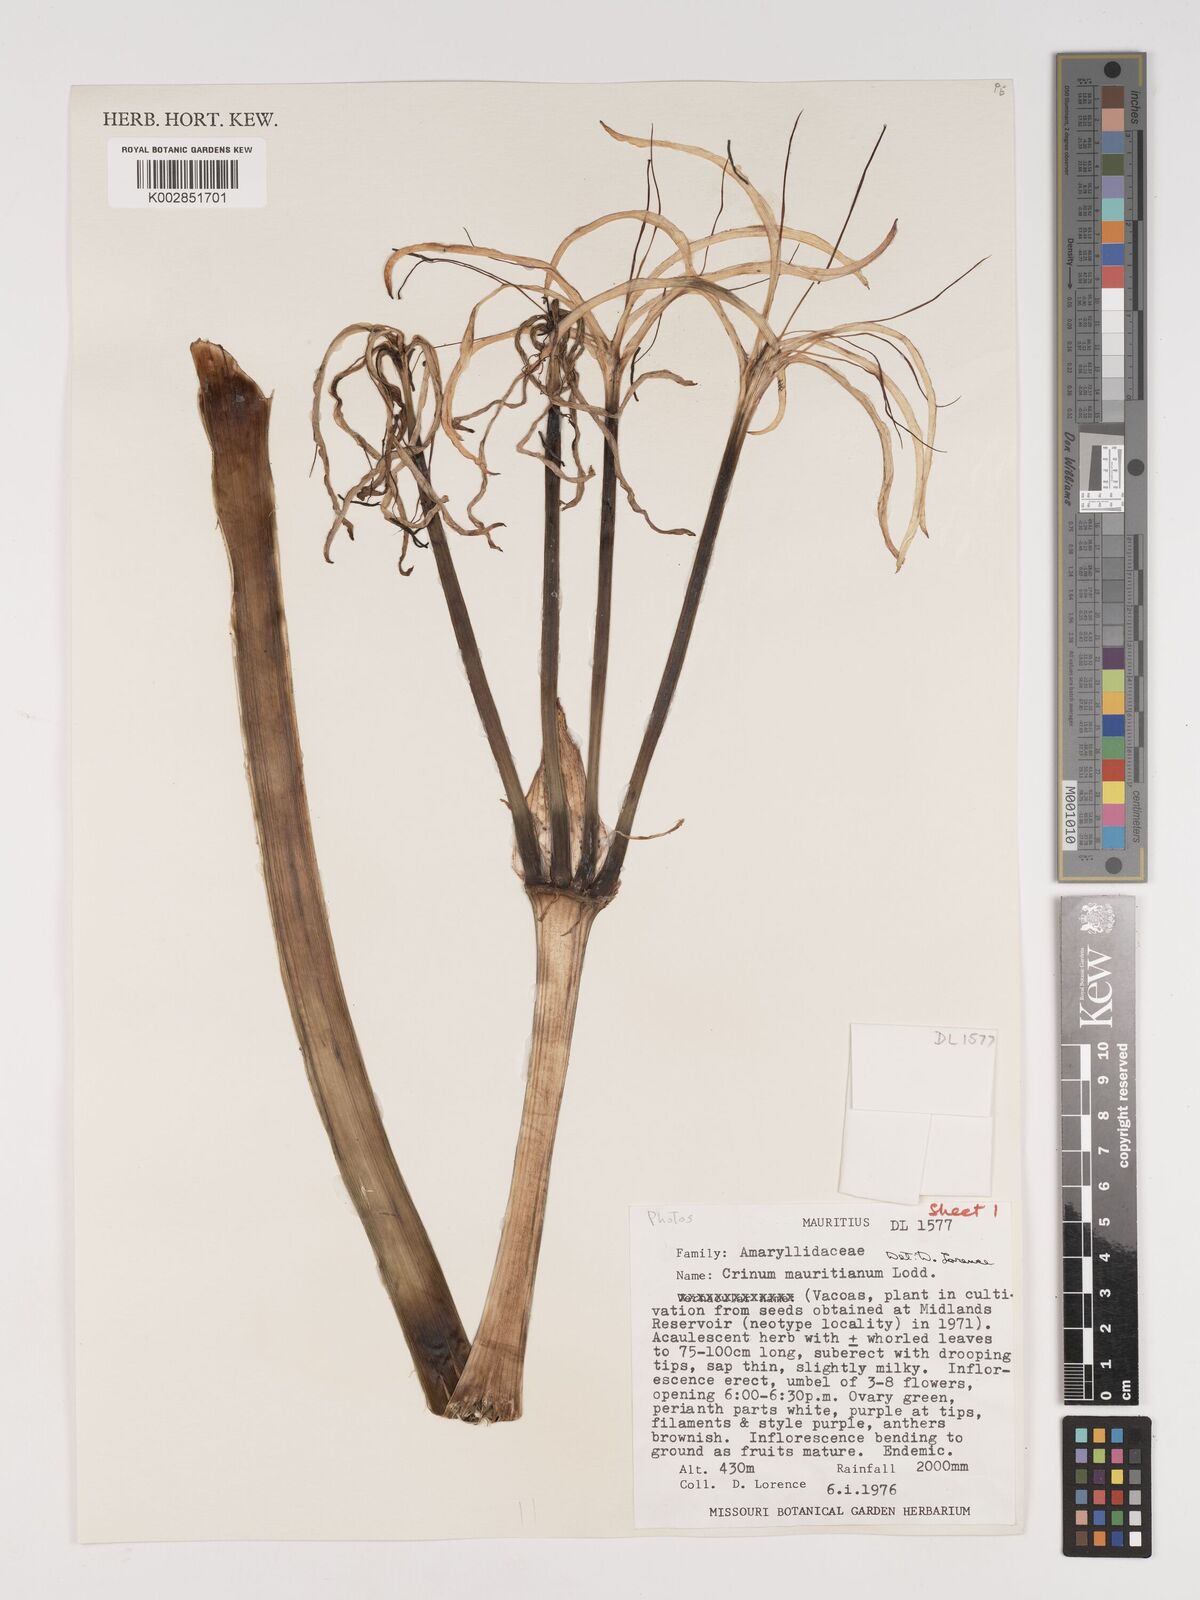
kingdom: Plantae
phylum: Tracheophyta
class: Liliopsida
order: Asparagales
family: Amaryllidaceae
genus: Crinum
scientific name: Crinum mauritianum
